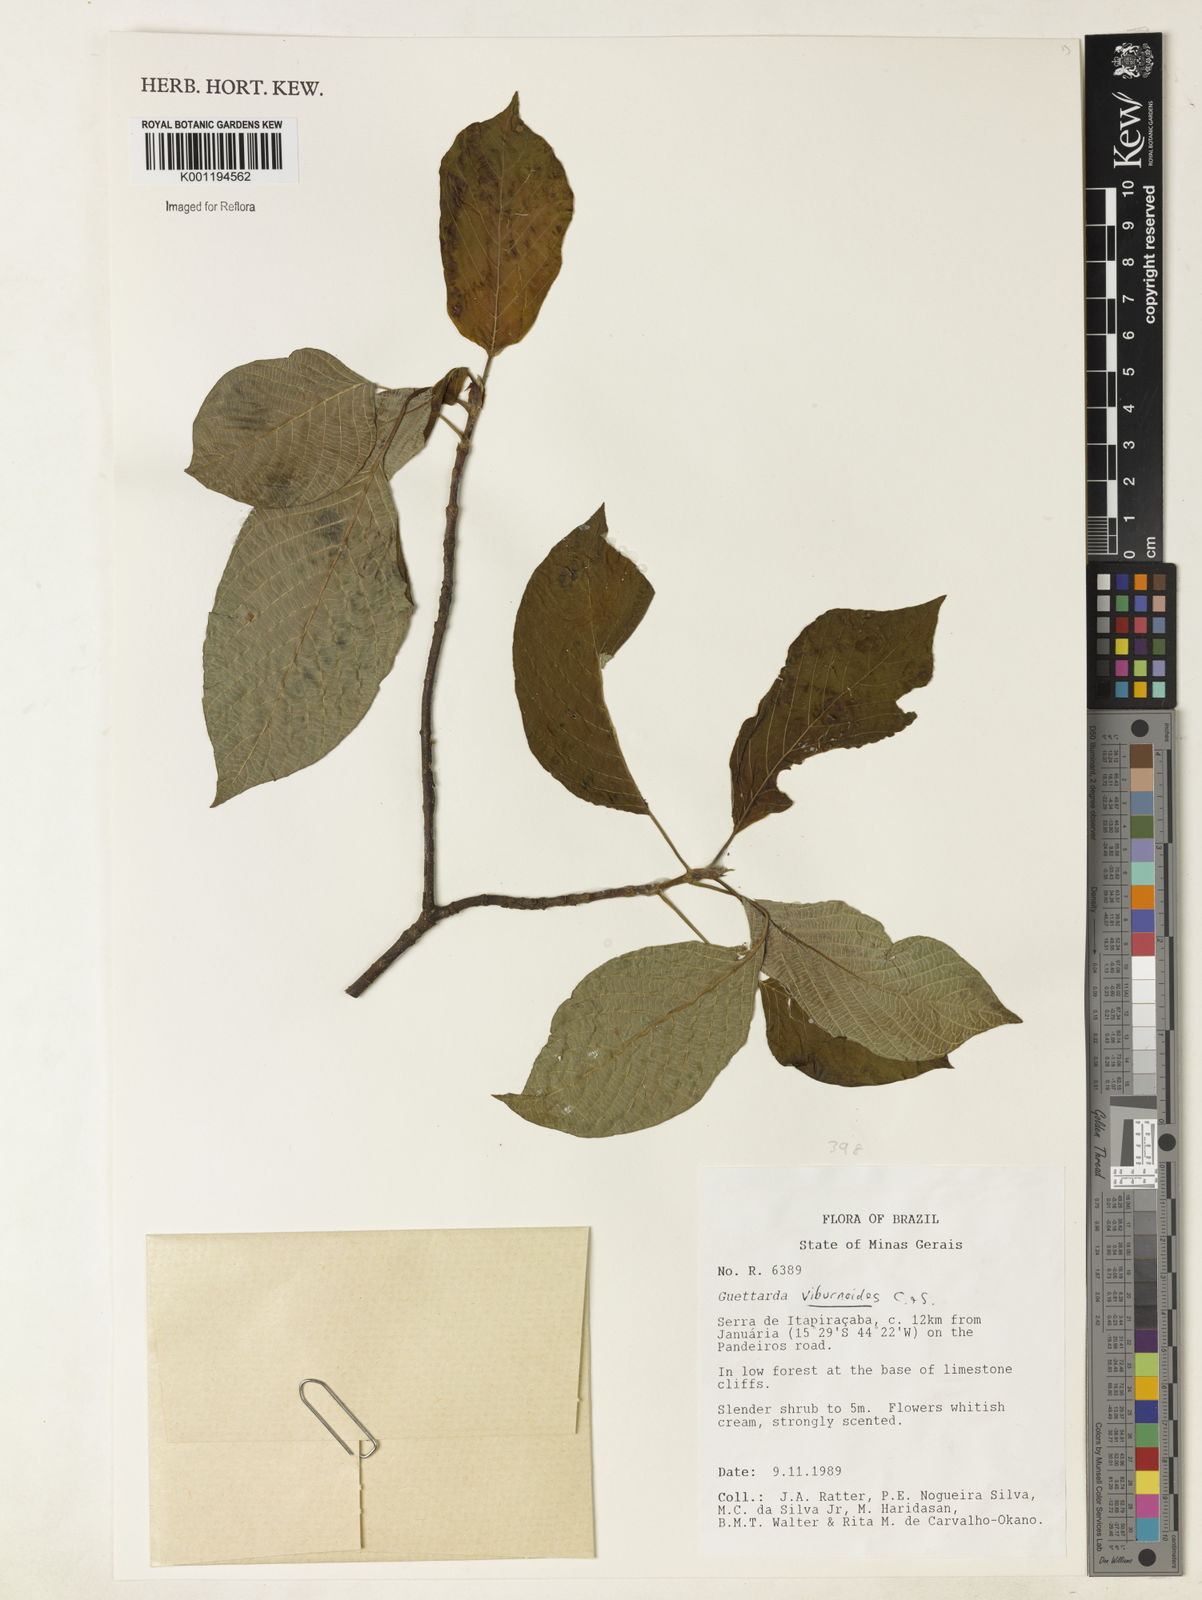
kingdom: Plantae
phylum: Tracheophyta
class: Magnoliopsida
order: Gentianales
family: Rubiaceae
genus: Guettarda
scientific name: Guettarda viburnoides
